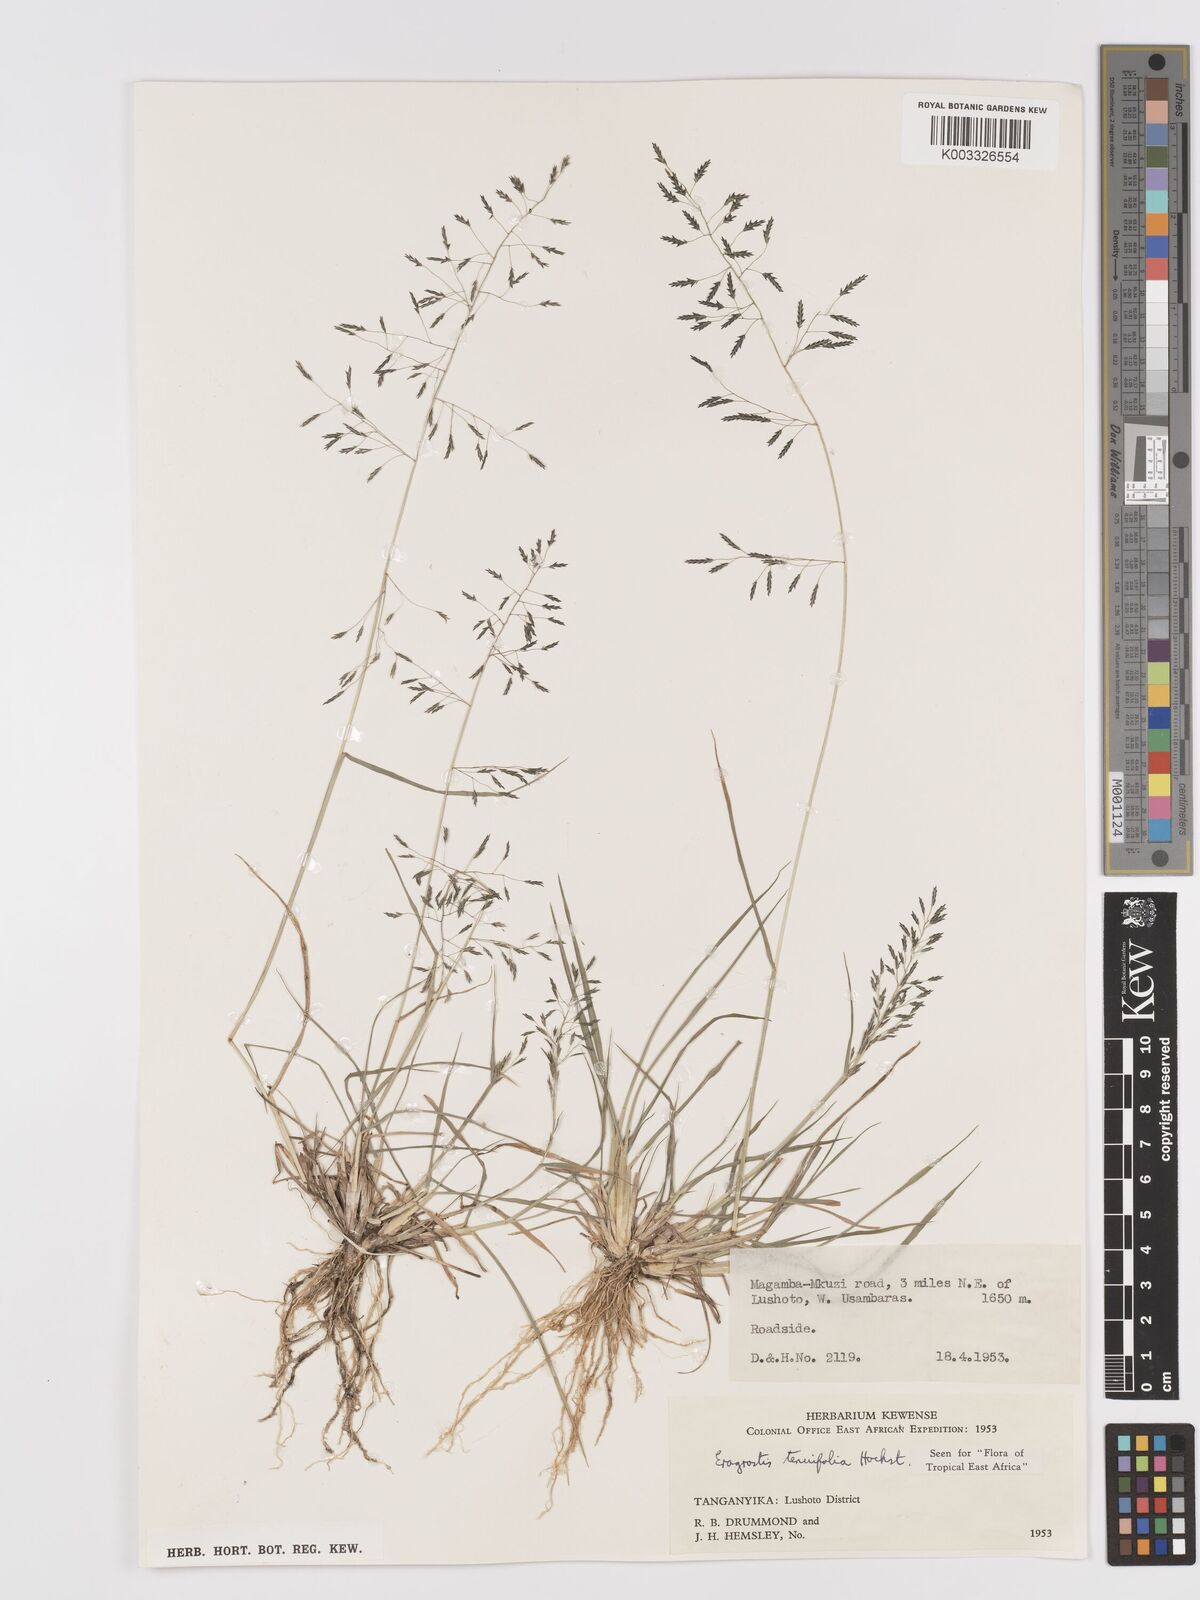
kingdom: Plantae
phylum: Tracheophyta
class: Liliopsida
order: Poales
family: Poaceae
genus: Eragrostis
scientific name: Eragrostis tenuifolia
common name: Elastic grass
